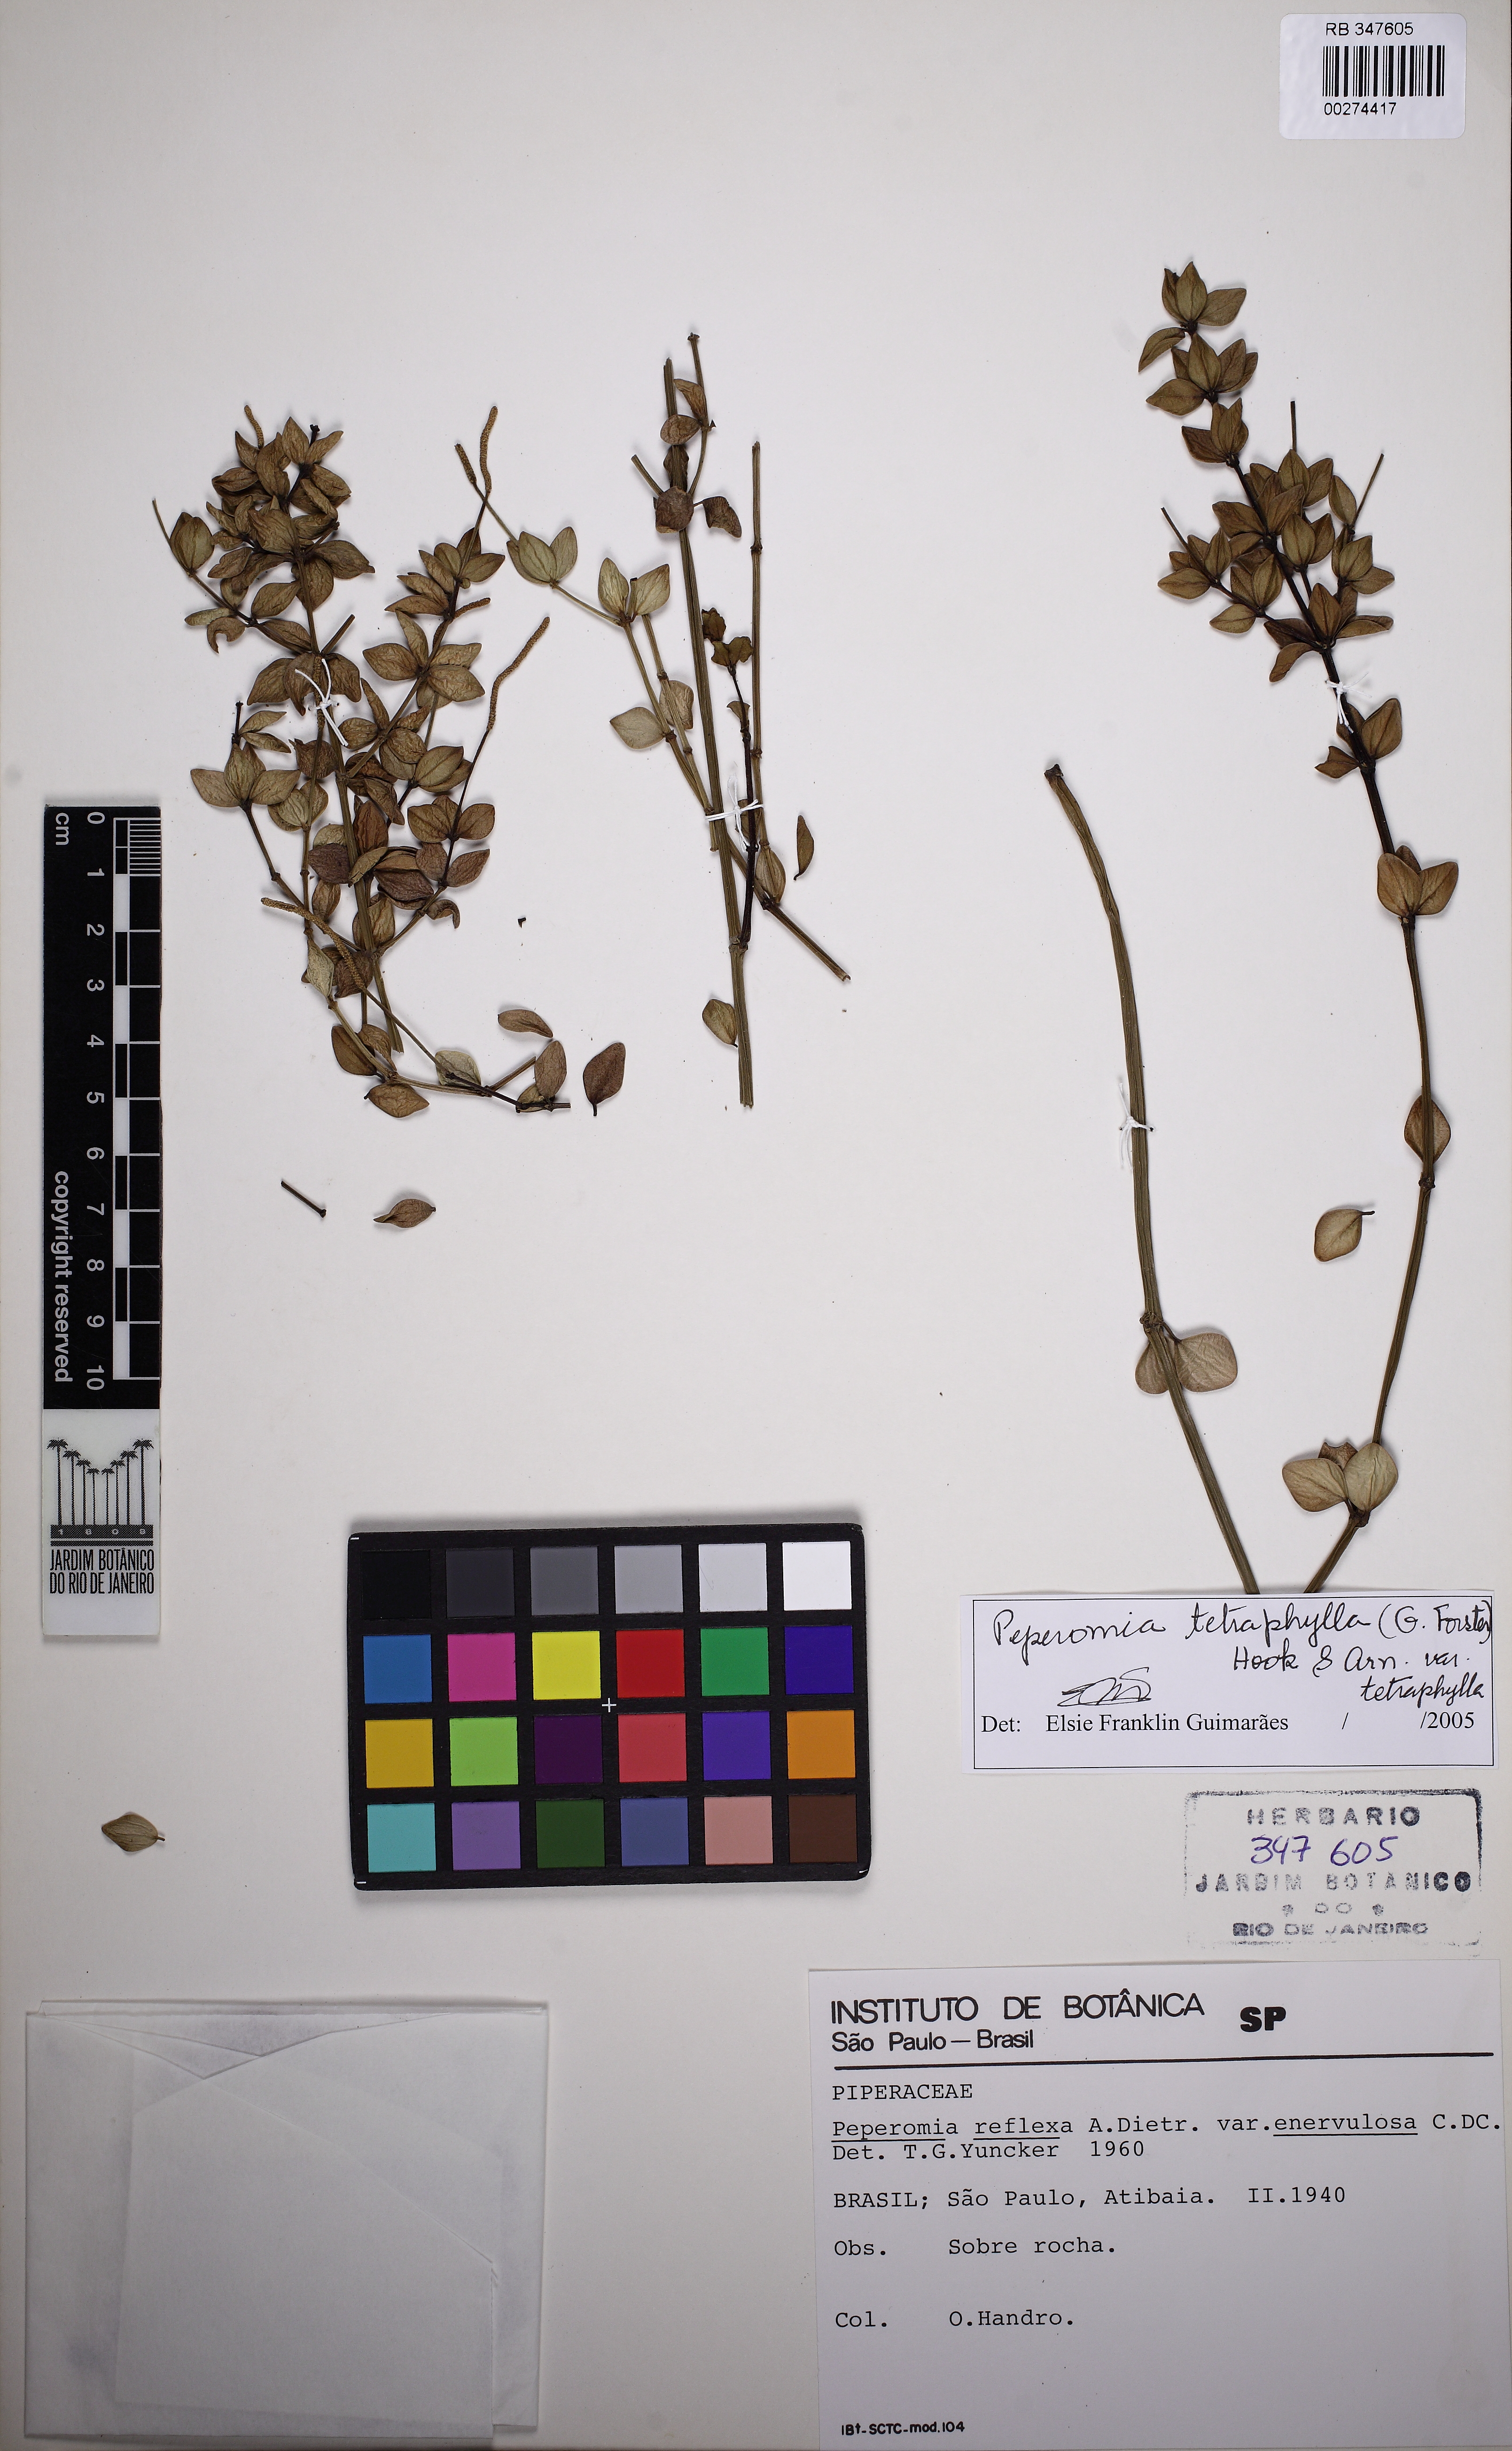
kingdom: Plantae
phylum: Tracheophyta
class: Magnoliopsida
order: Piperales
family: Piperaceae
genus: Peperomia
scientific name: Peperomia tetraphylla
